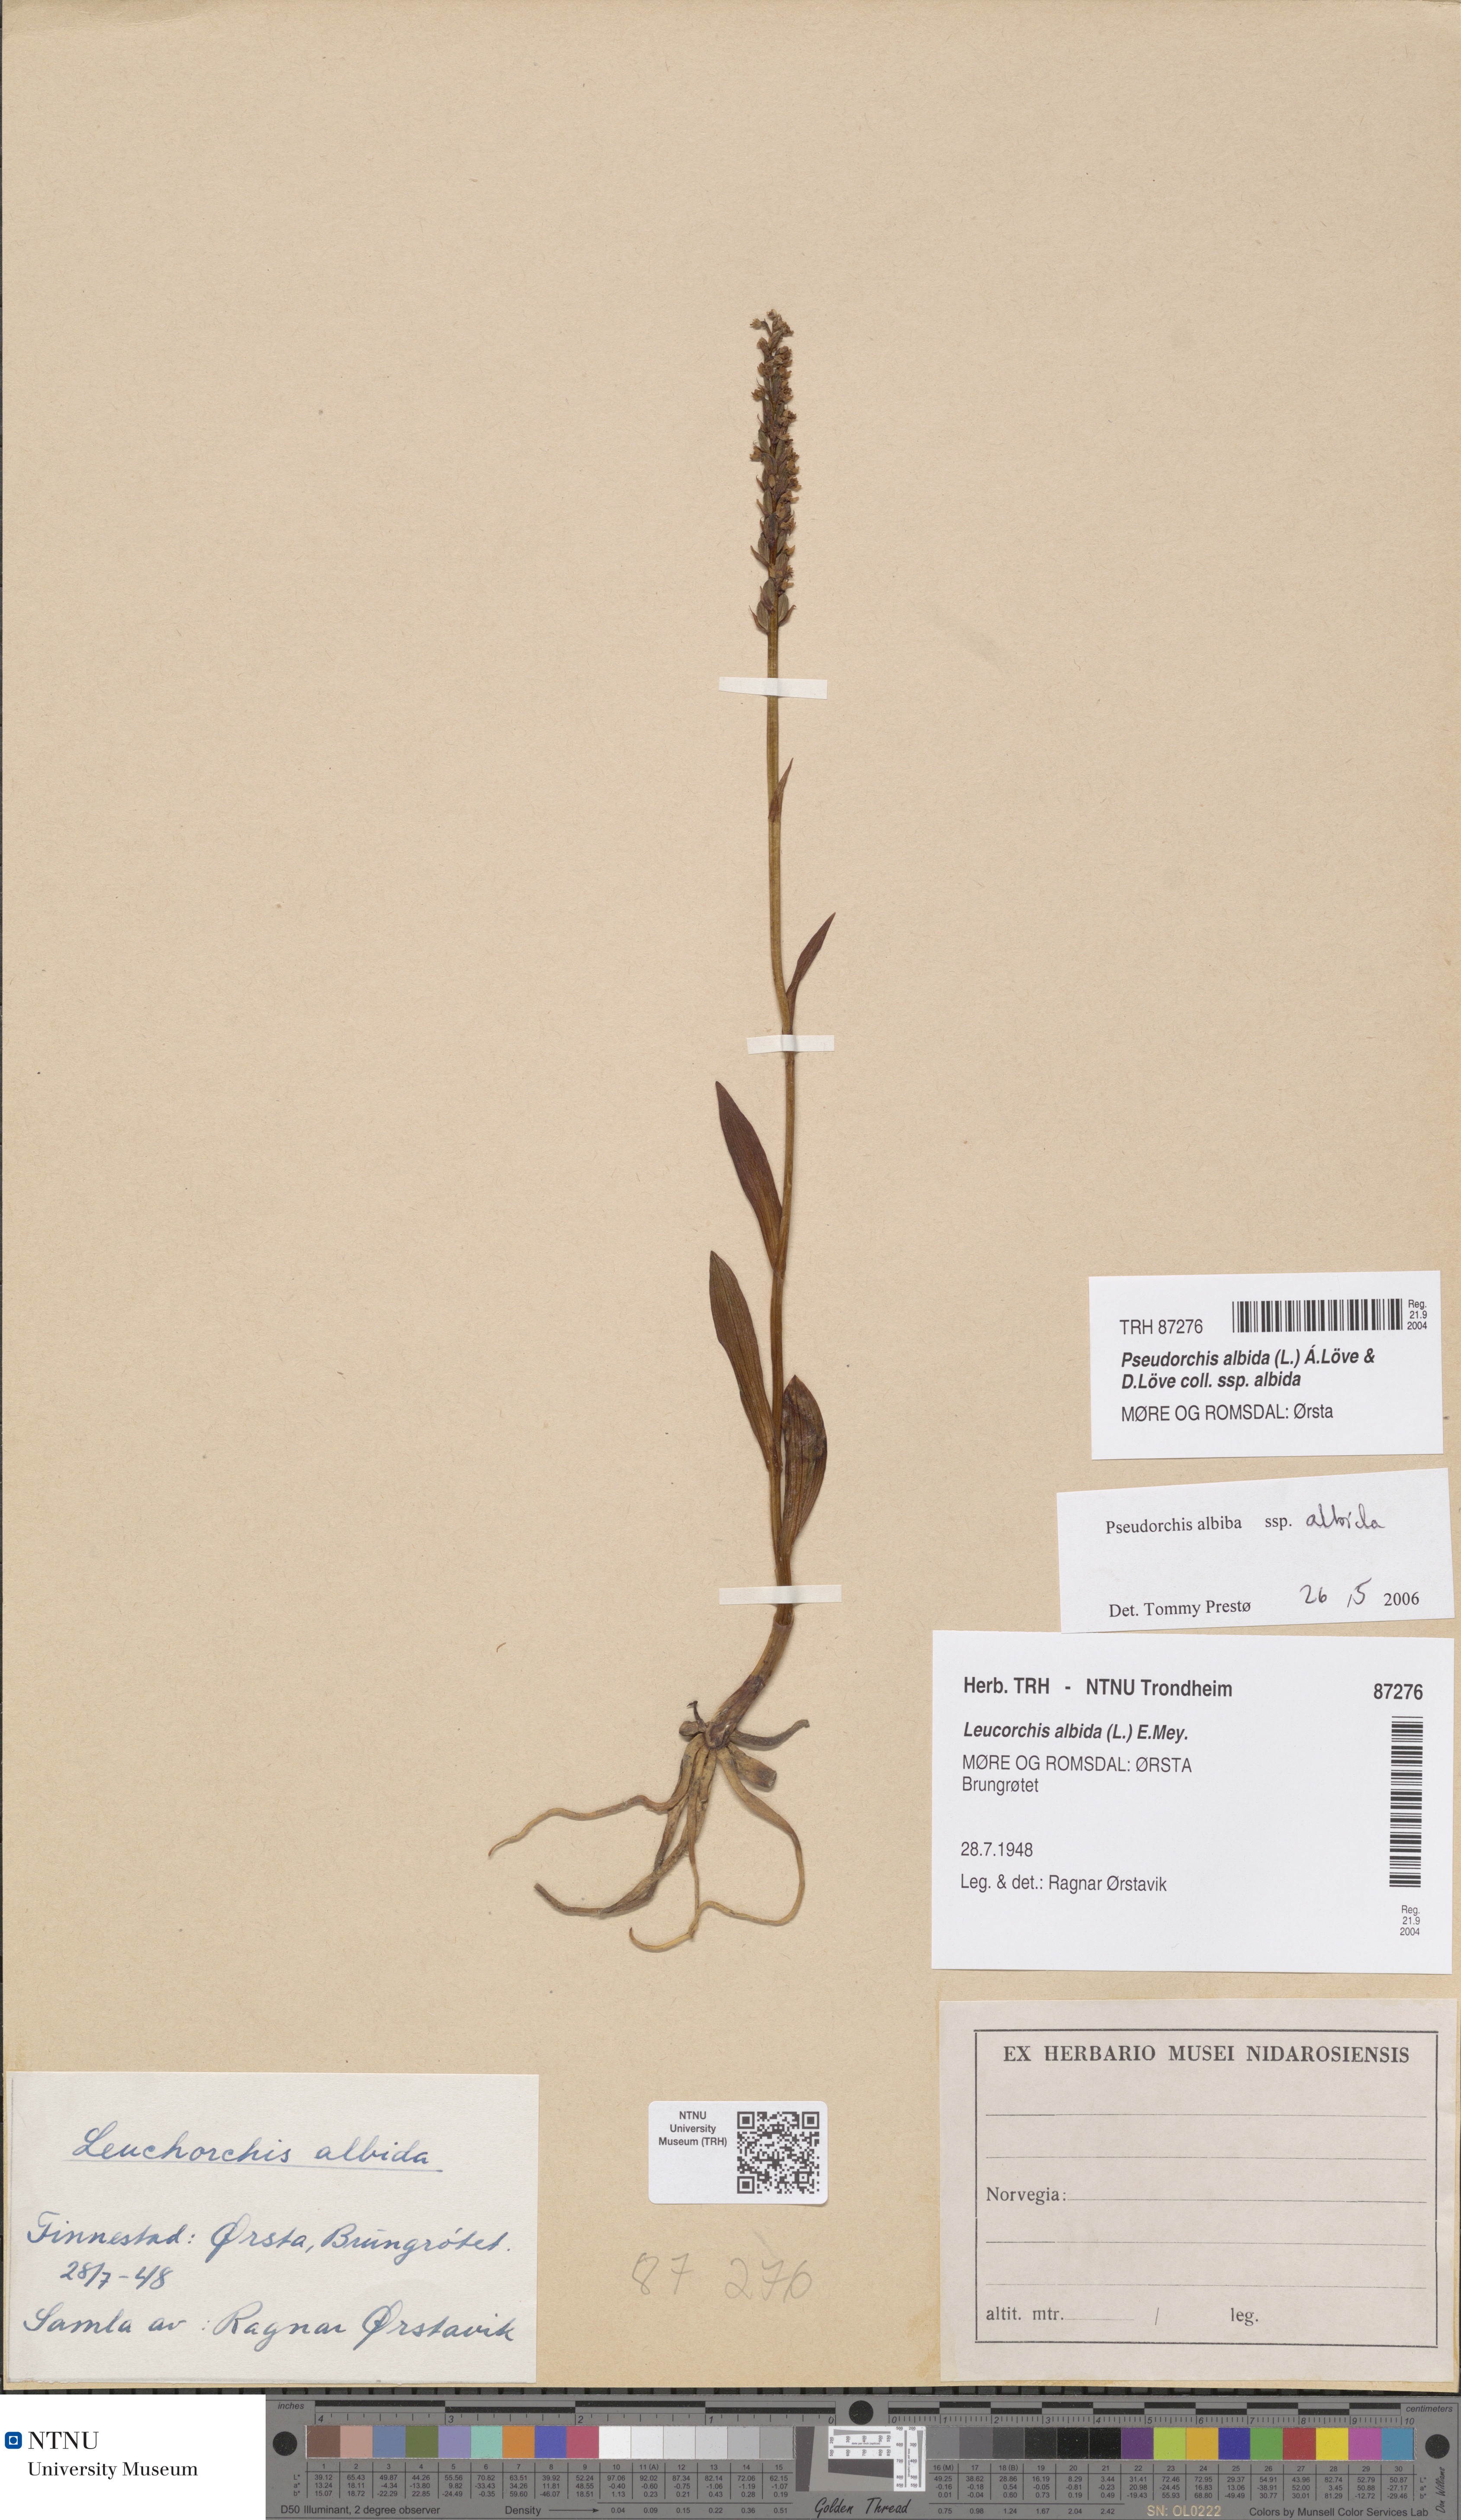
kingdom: Plantae
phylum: Tracheophyta
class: Liliopsida
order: Asparagales
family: Orchidaceae
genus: Pseudorchis
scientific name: Pseudorchis albida
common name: Small-white orchid
